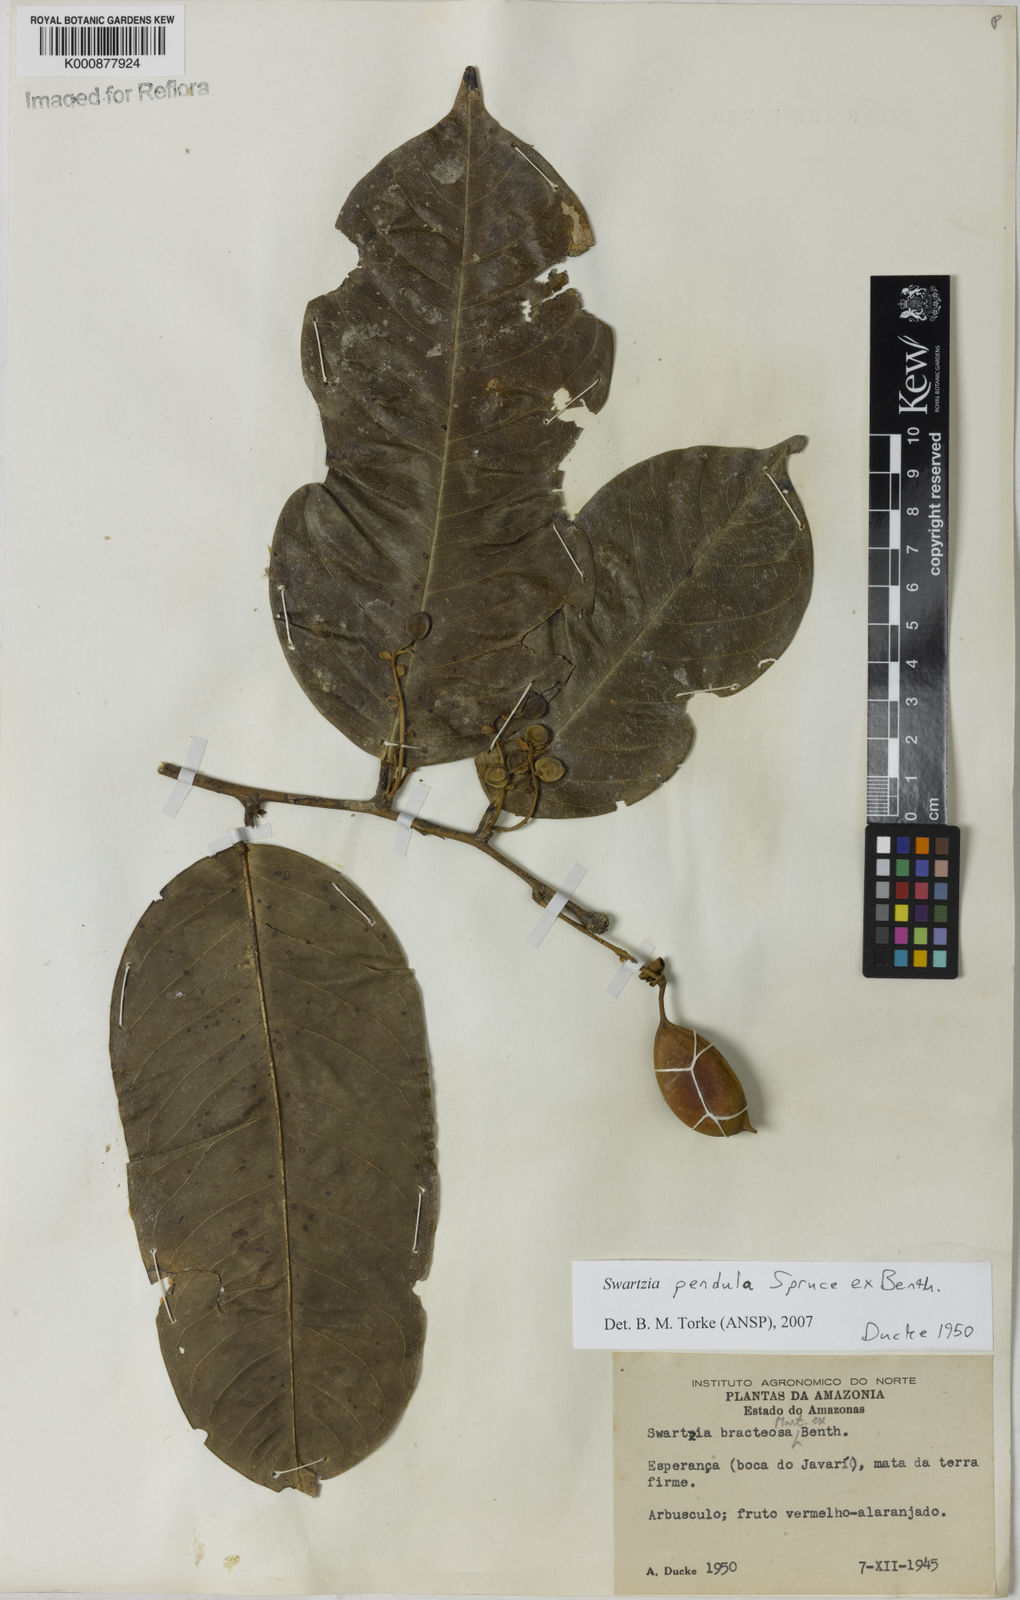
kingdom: Plantae
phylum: Tracheophyta
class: Magnoliopsida
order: Fabales
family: Fabaceae
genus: Swartzia
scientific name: Swartzia pendula
